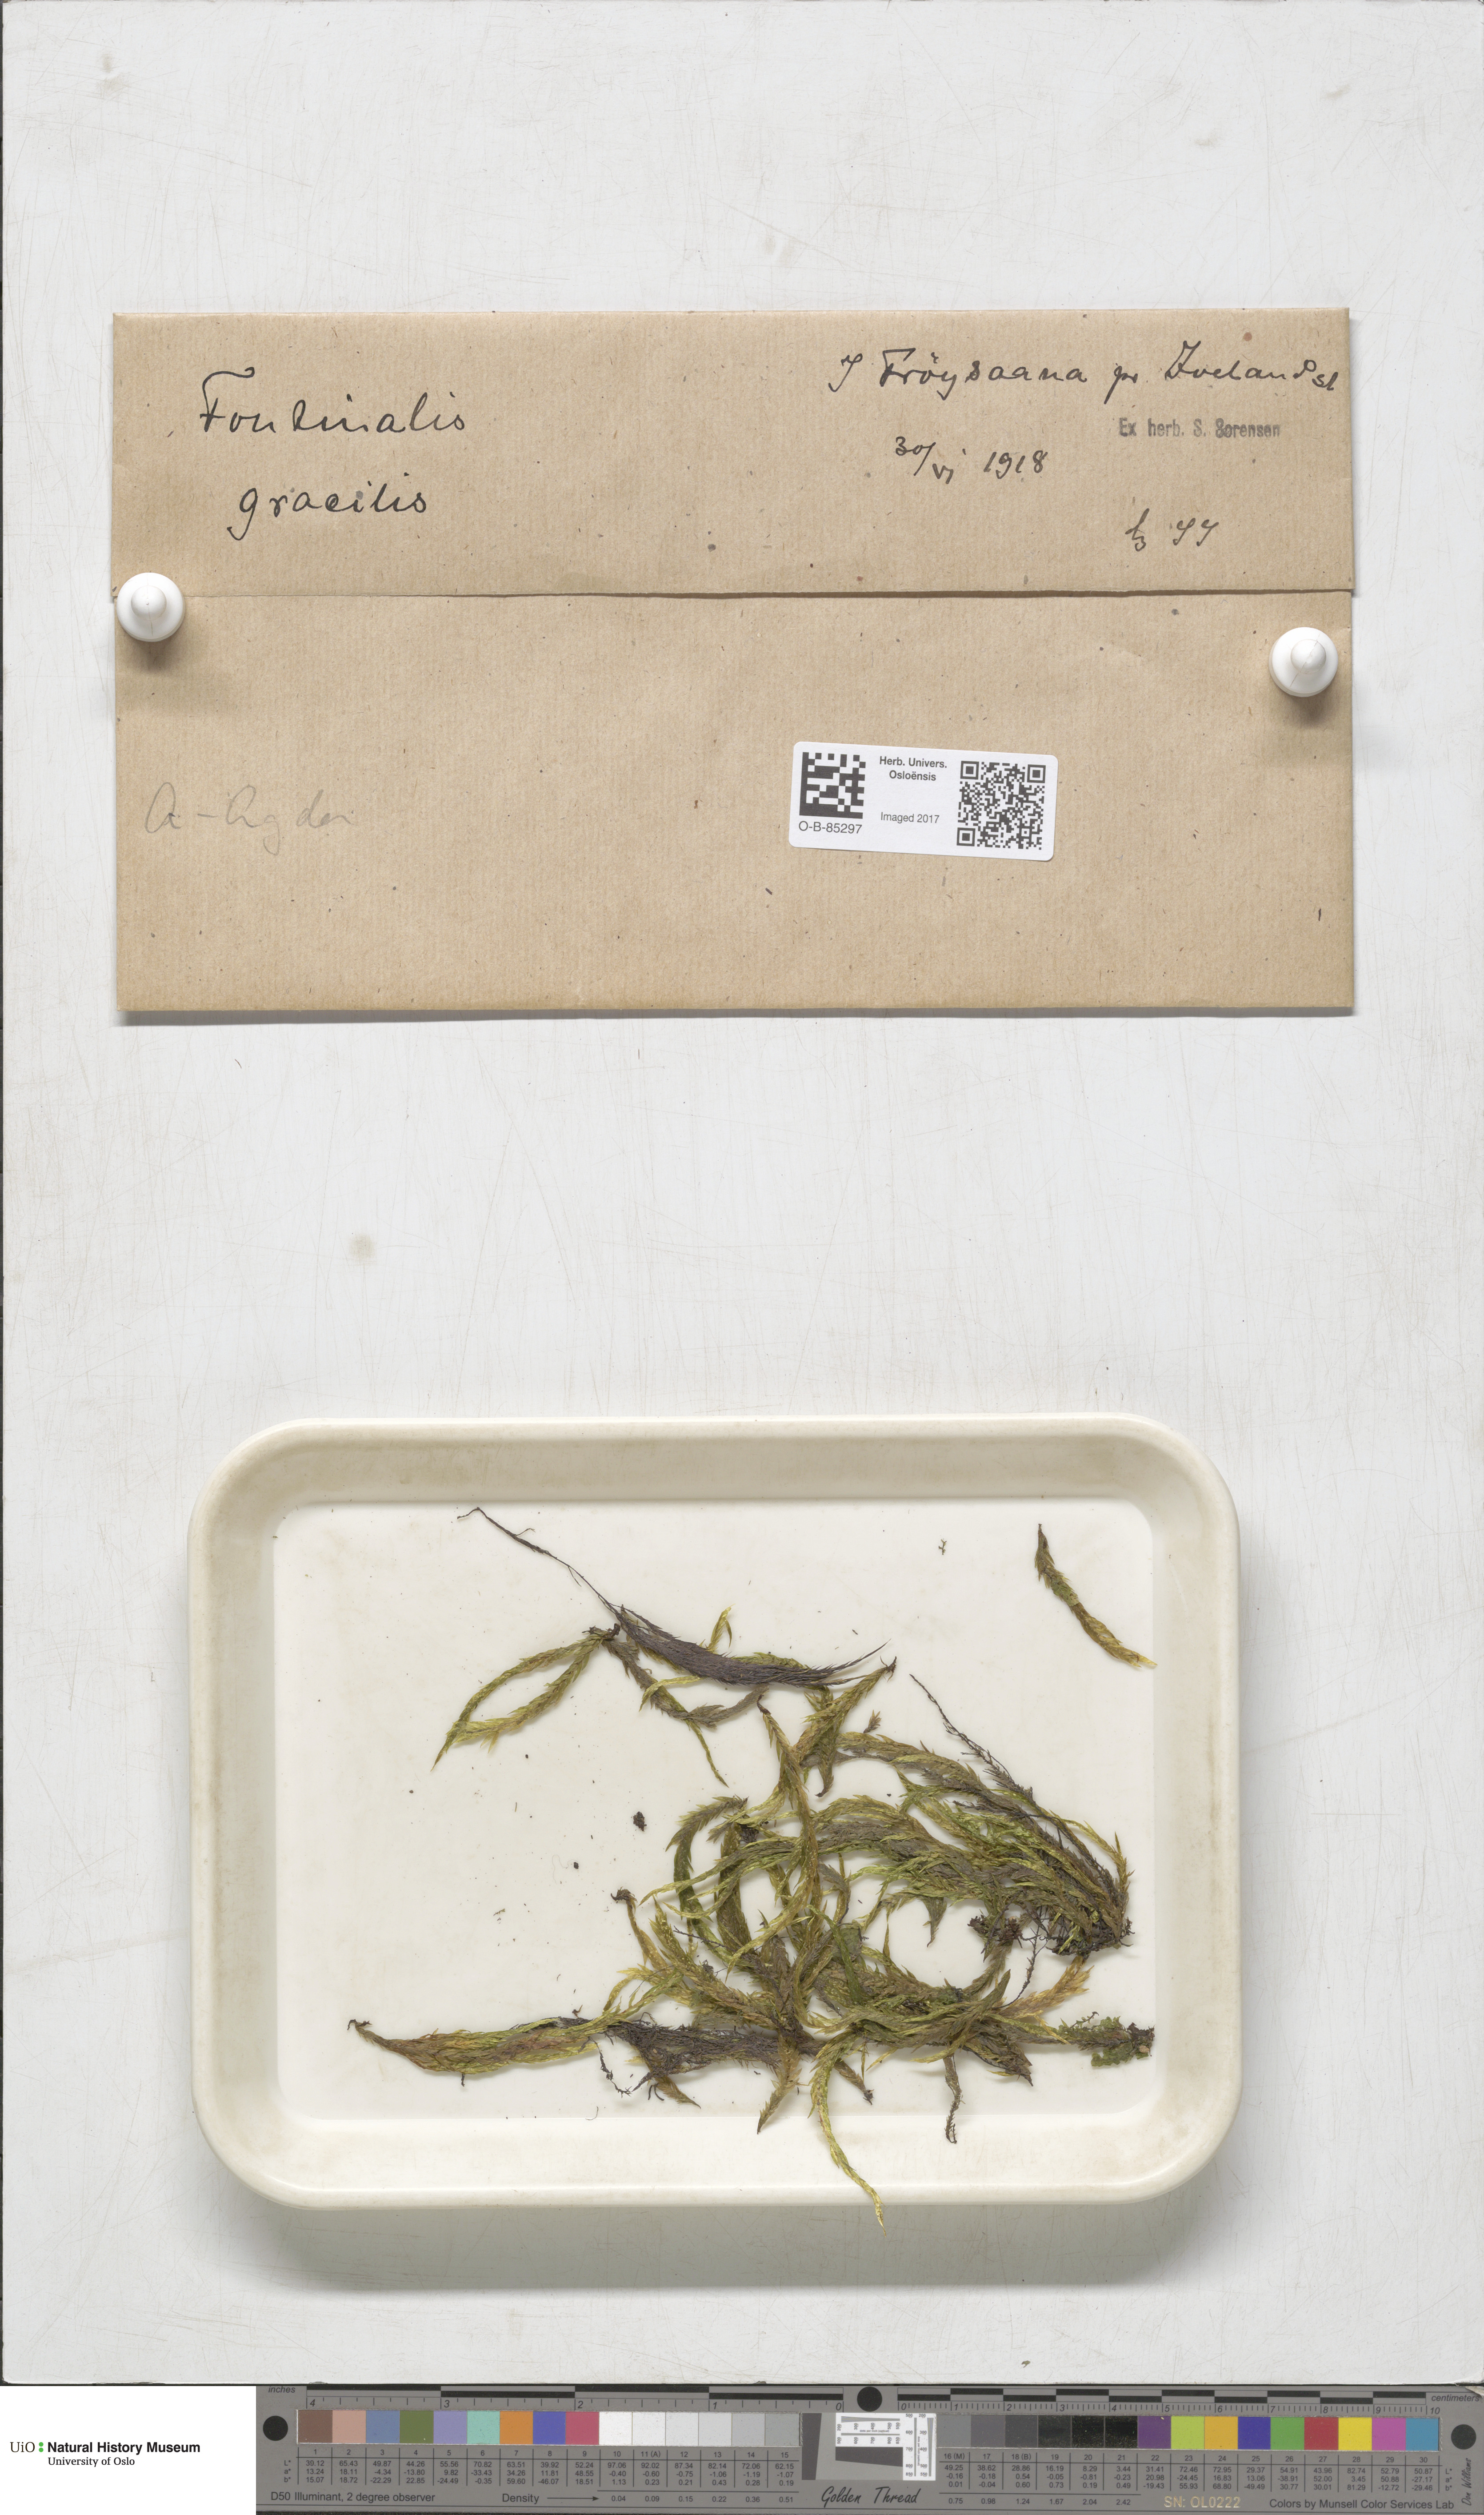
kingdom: Plantae
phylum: Bryophyta
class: Bryopsida
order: Hypnales
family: Fontinalaceae
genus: Fontinalis
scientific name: Fontinalis antipyretica
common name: Greater water-moss
